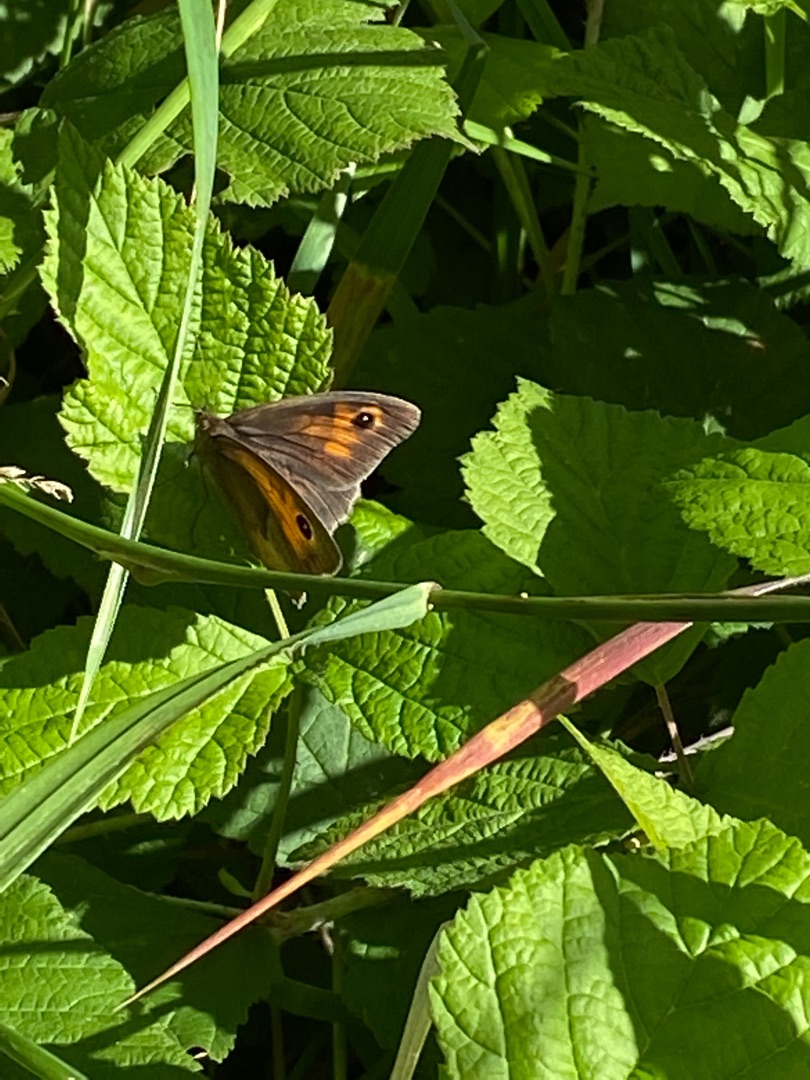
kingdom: Animalia
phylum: Arthropoda
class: Insecta
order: Lepidoptera
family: Nymphalidae
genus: Maniola
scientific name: Maniola jurtina
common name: Græsrandøje
